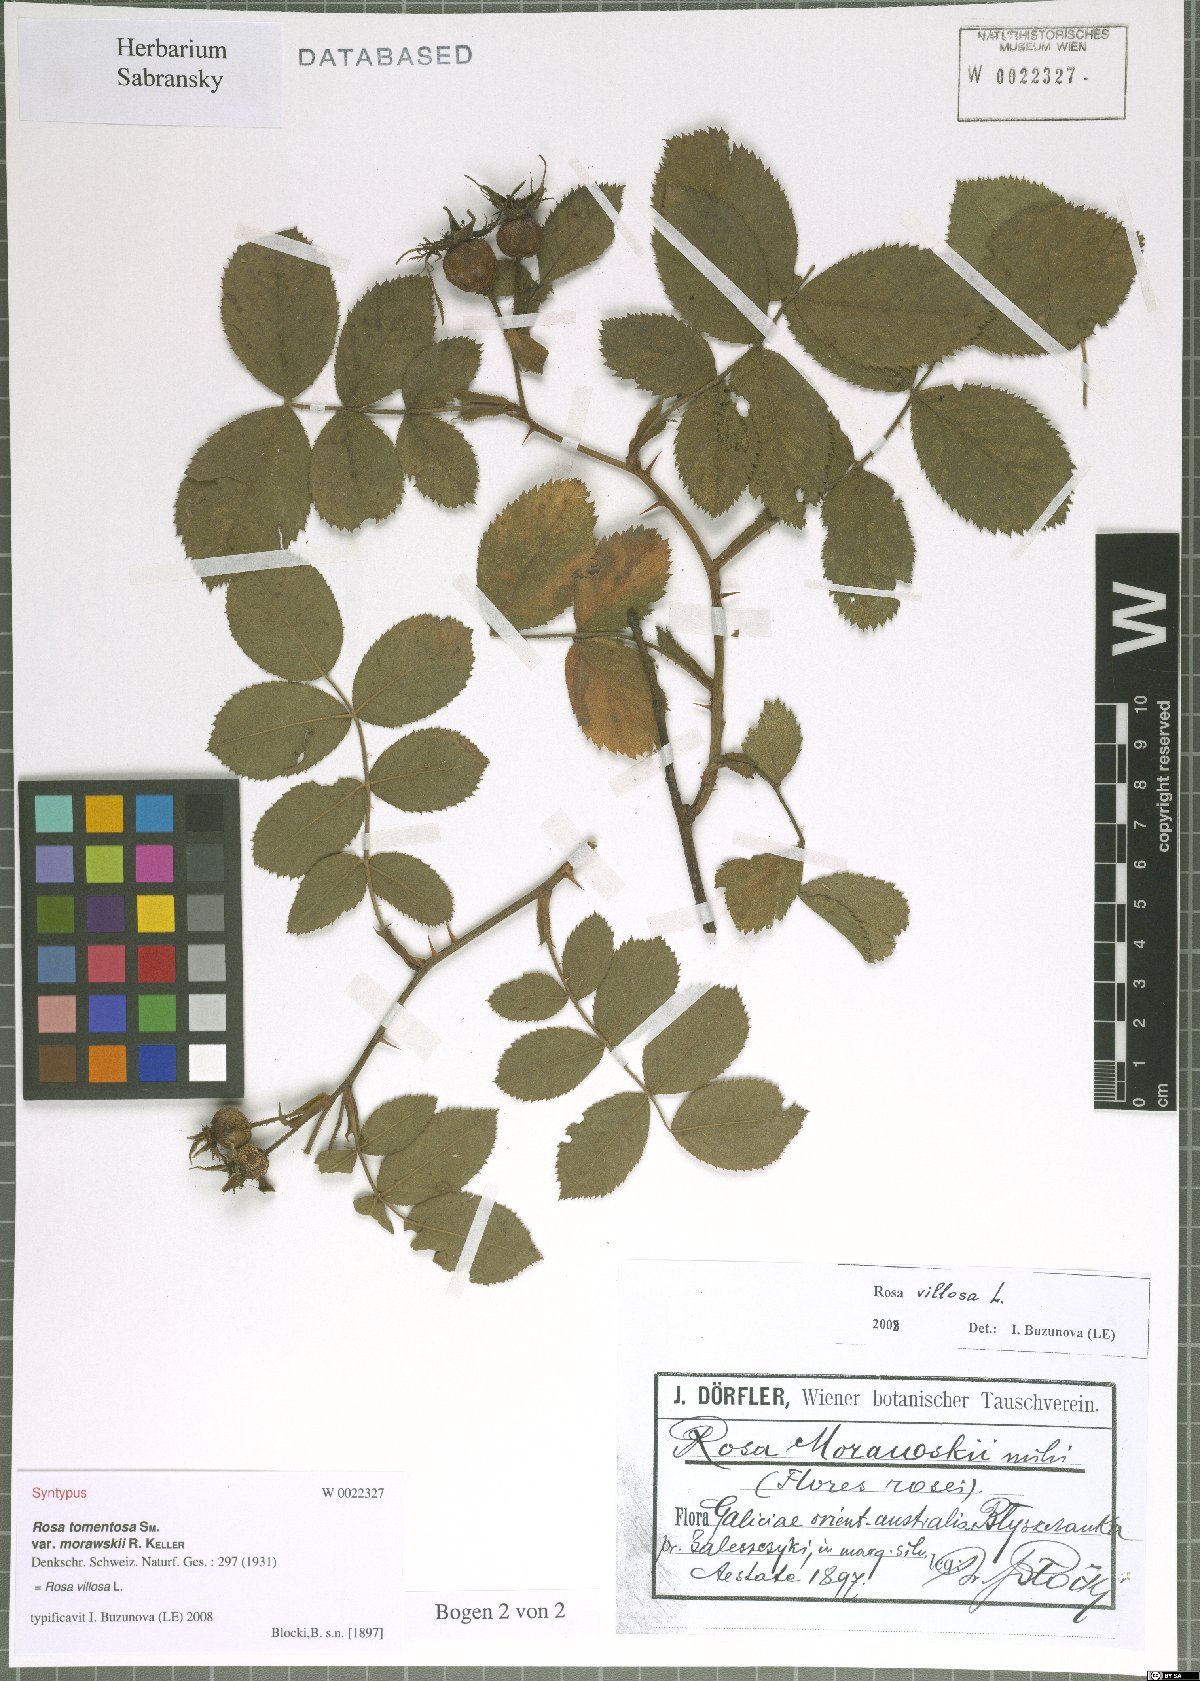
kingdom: Plantae
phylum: Tracheophyta
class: Magnoliopsida
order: Rosales
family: Rosaceae
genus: Rosa
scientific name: Rosa villosa
